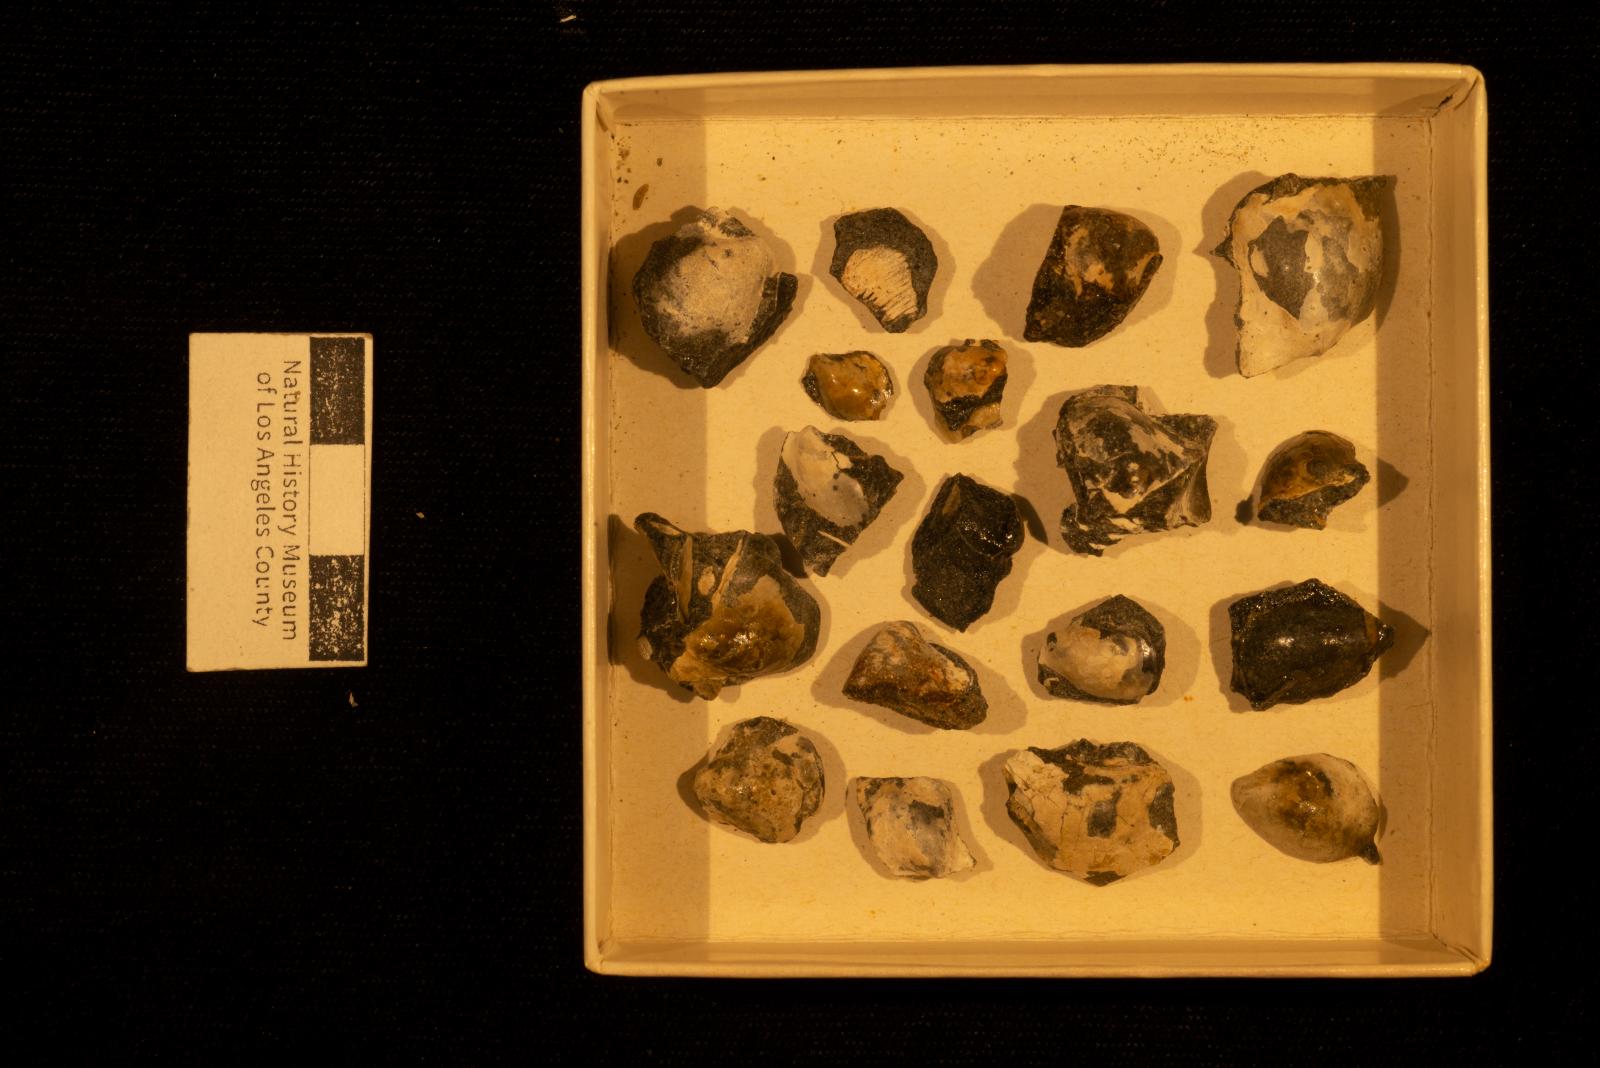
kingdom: Animalia
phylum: Mollusca
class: Bivalvia
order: Ostreida
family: Pteriidae
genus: Pteria
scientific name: Pteria pellucida
